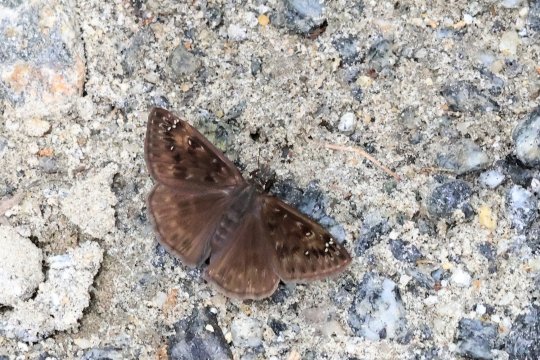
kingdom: Animalia
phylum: Arthropoda
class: Insecta
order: Lepidoptera
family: Hesperiidae
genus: Gesta
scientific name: Gesta
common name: Horace's Duskywing
